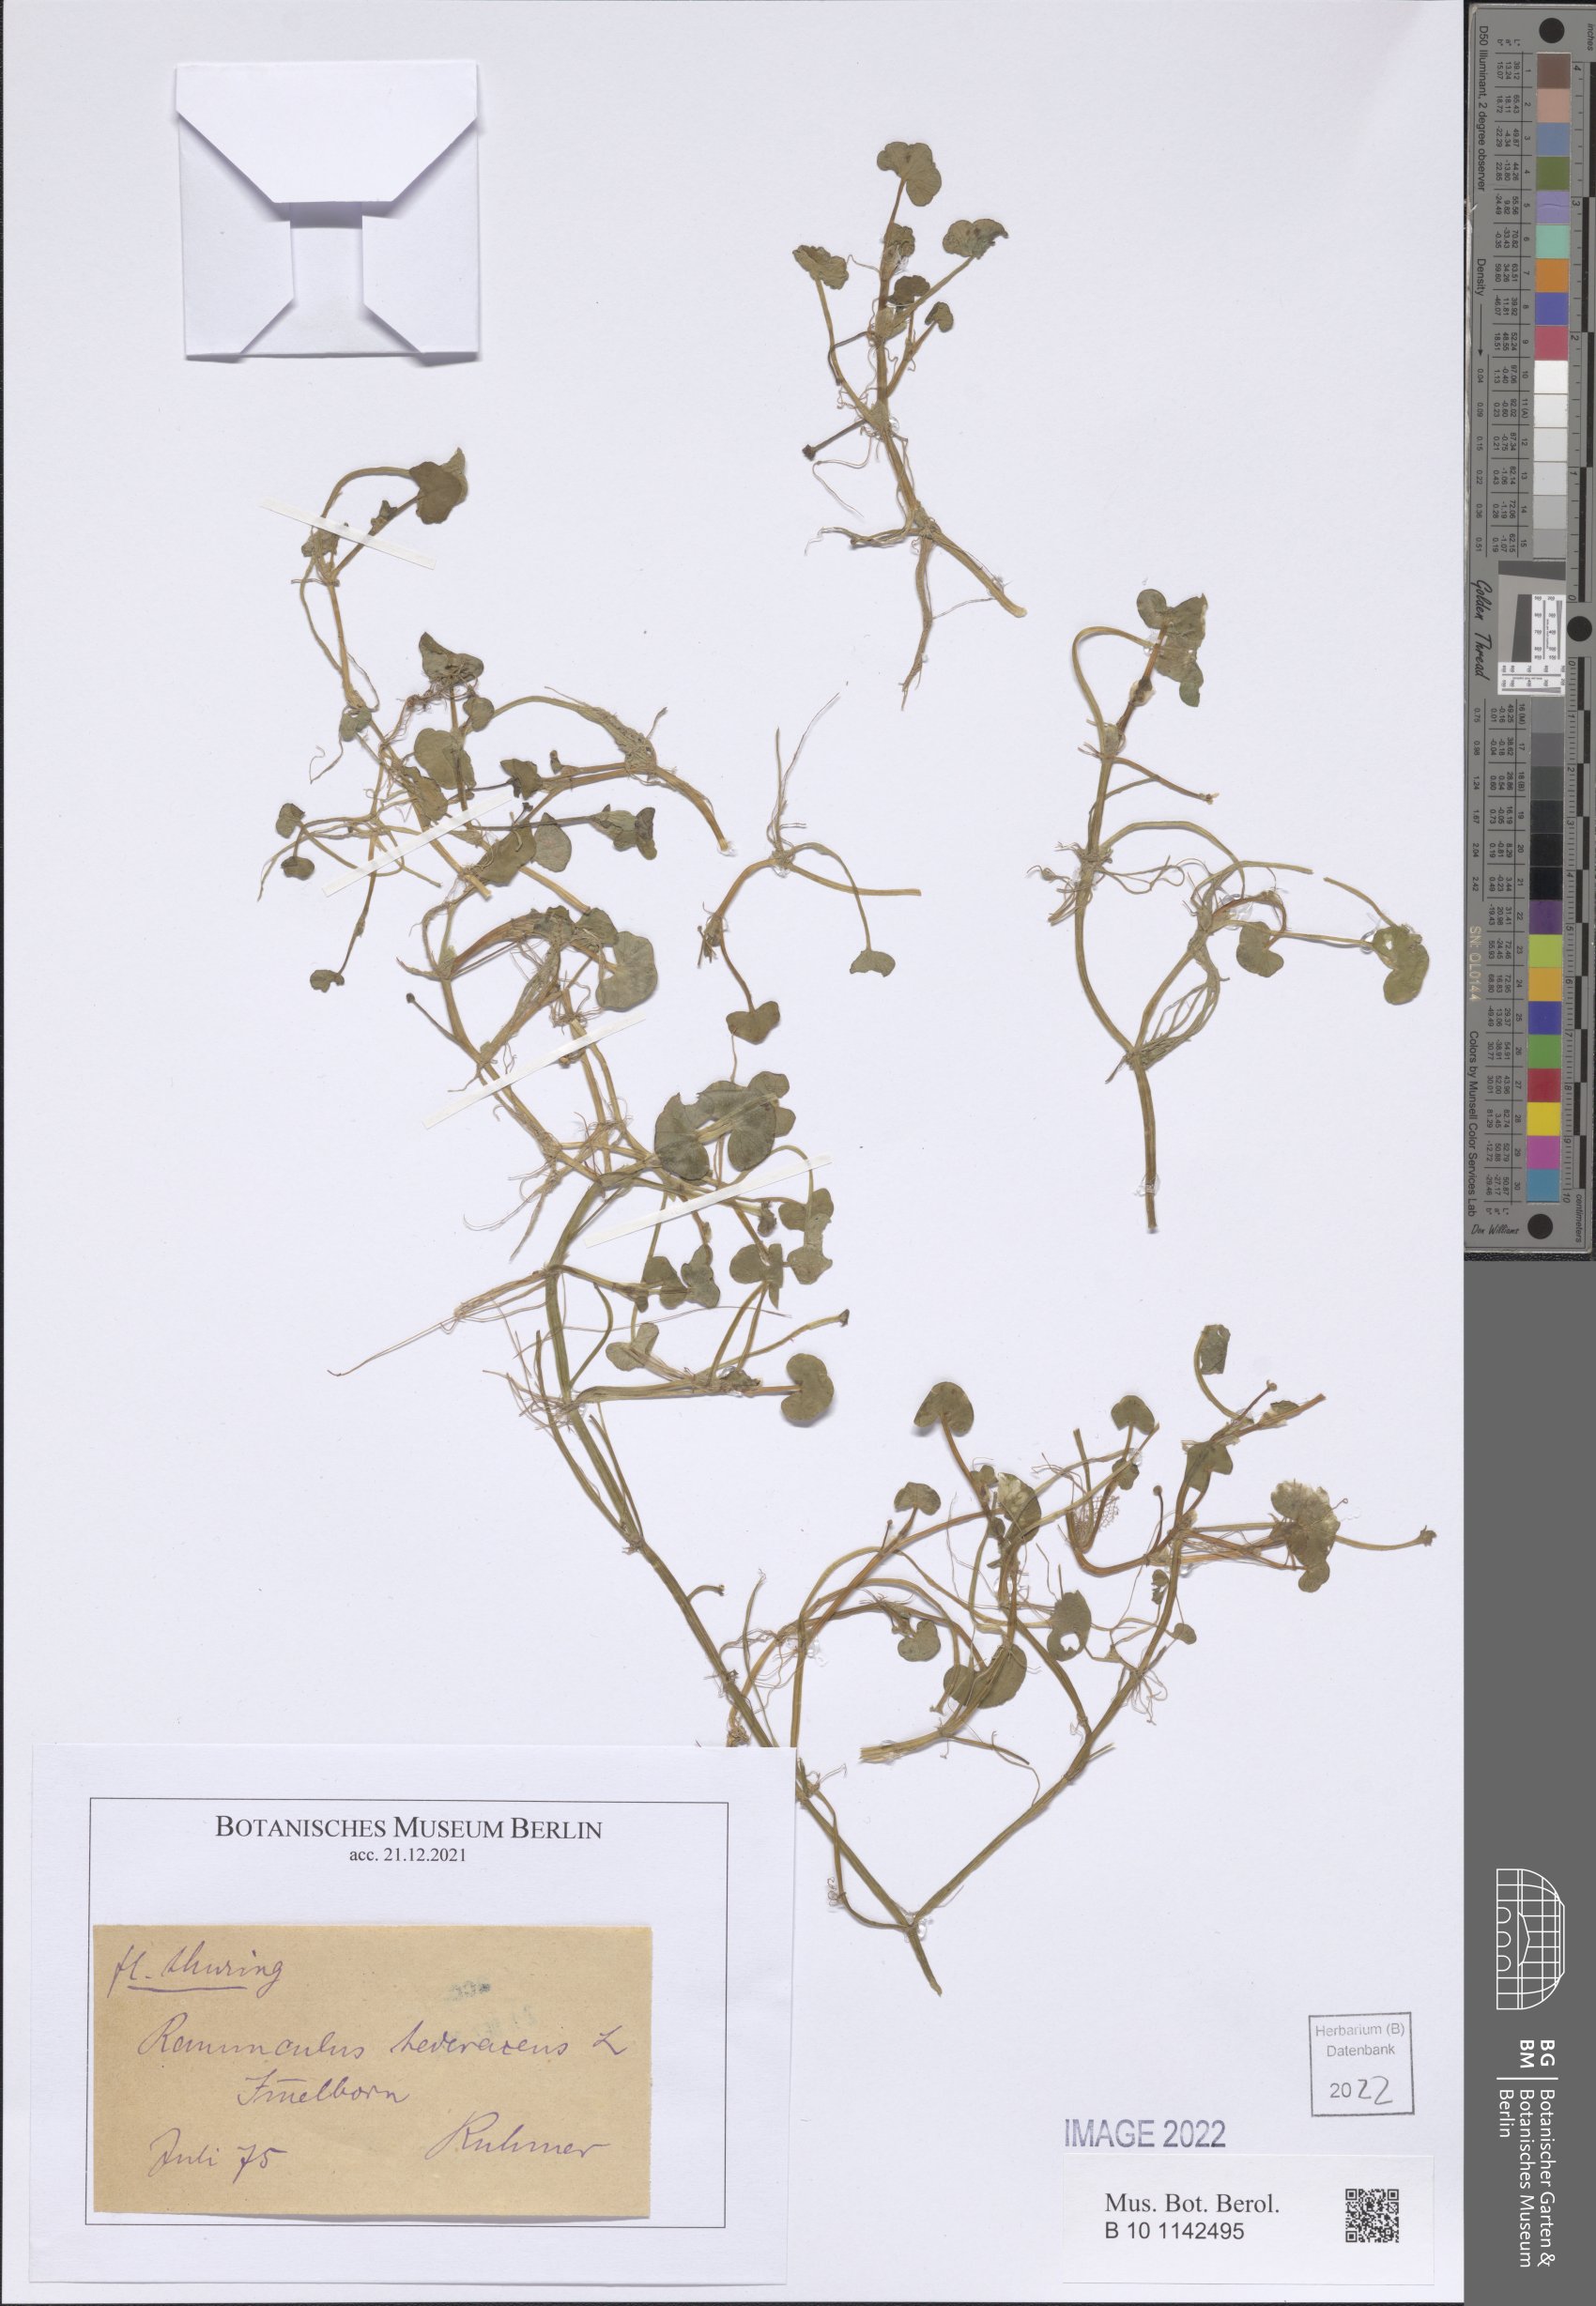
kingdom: Plantae
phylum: Tracheophyta
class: Magnoliopsida
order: Ranunculales
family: Ranunculaceae
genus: Ranunculus
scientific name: Ranunculus hederaceus
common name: Ivy-leaved crowfoot
